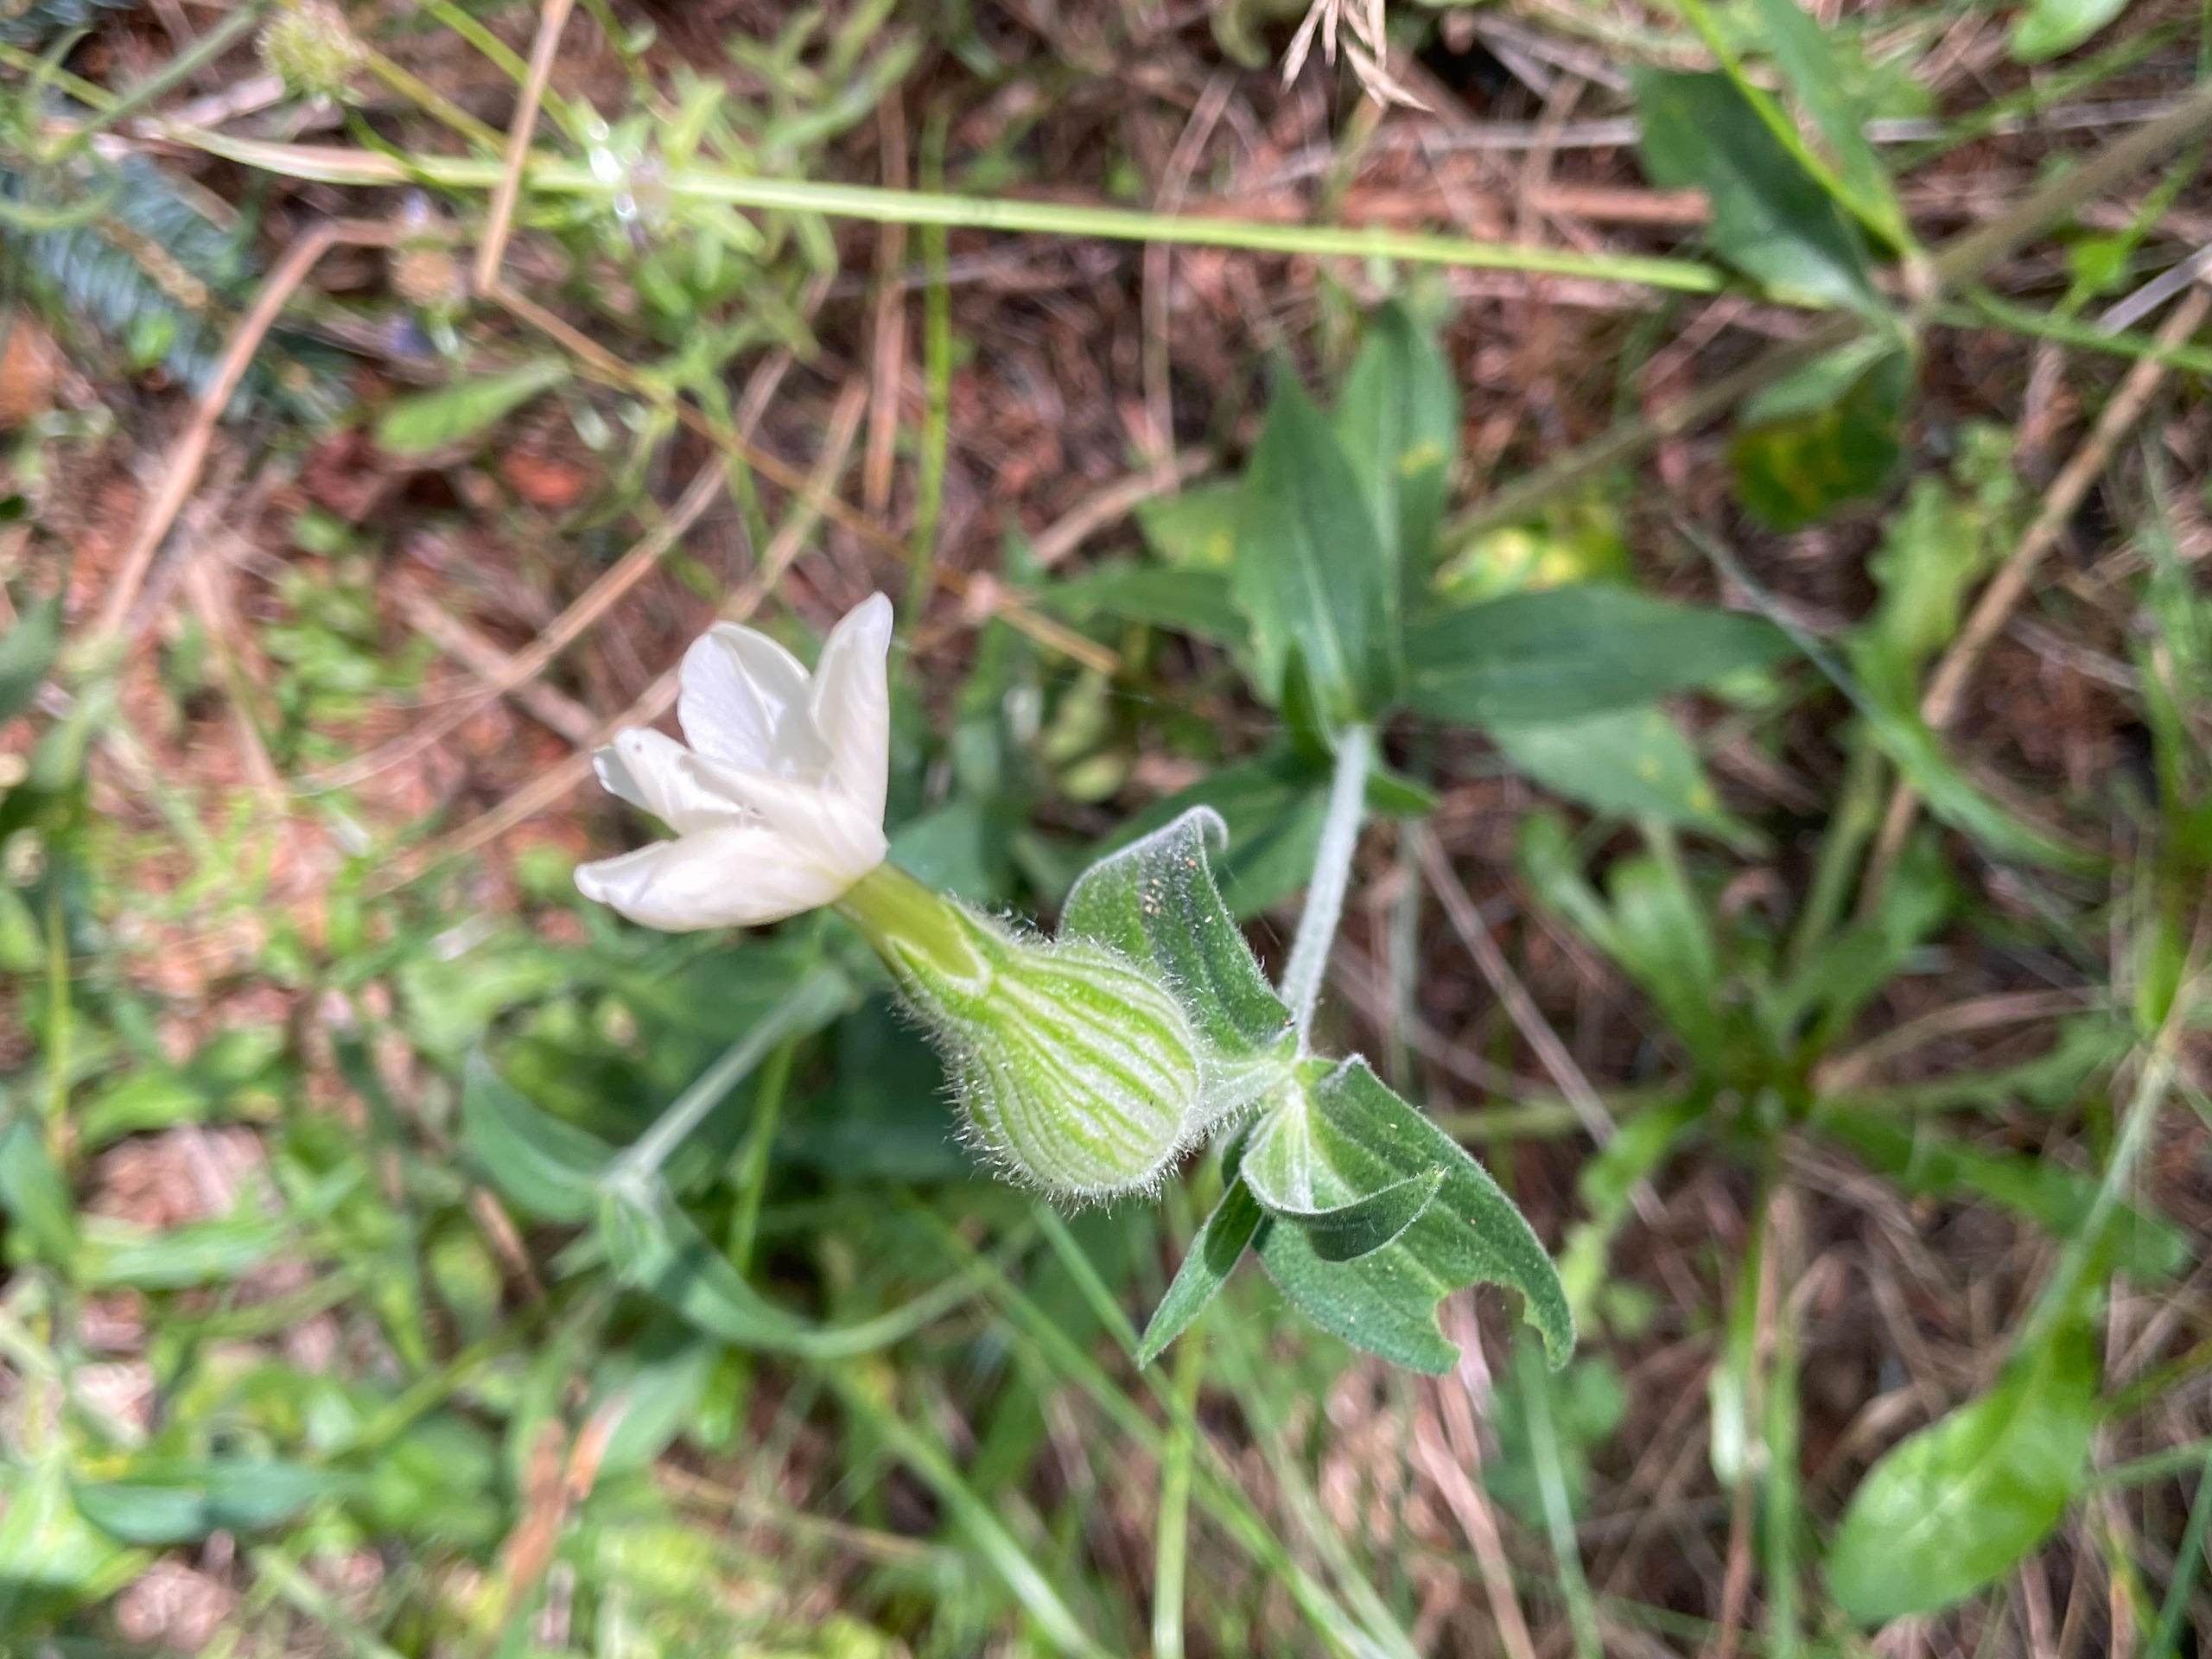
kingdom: Plantae
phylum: Tracheophyta
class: Magnoliopsida
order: Caryophyllales
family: Caryophyllaceae
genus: Silene
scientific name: Silene latifolia
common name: Aftenpragtstjerne
